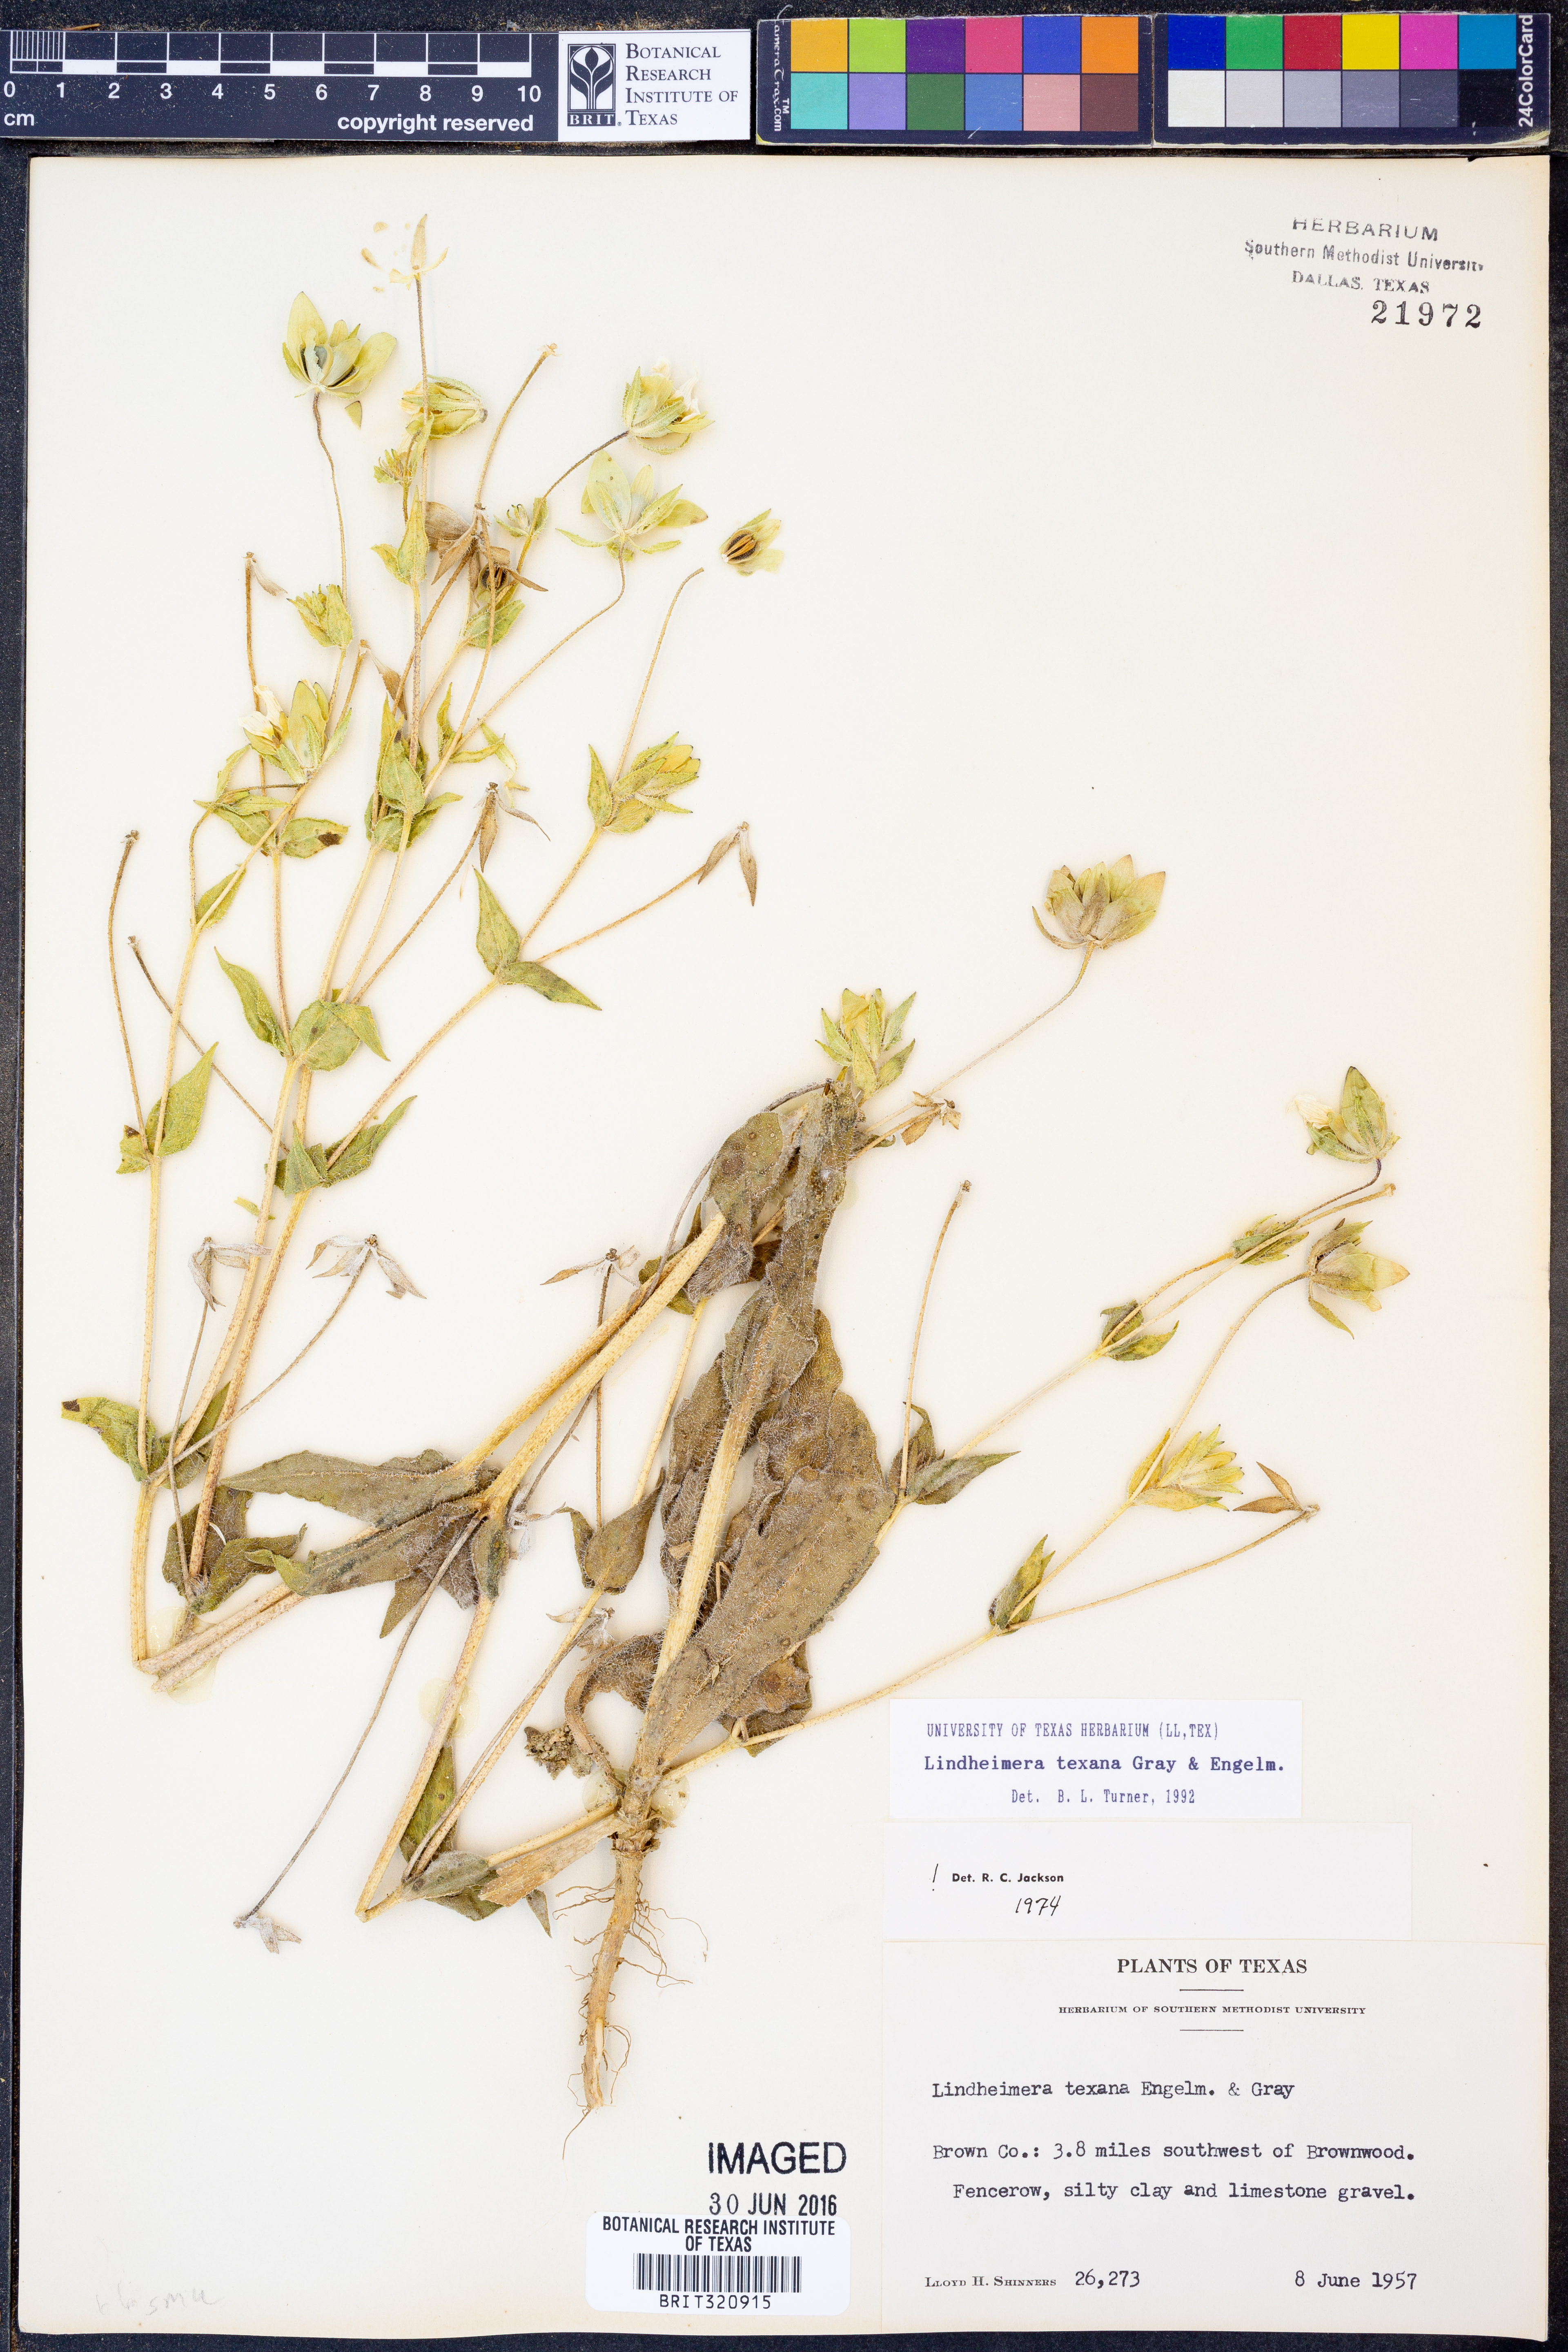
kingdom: Plantae
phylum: Tracheophyta
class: Magnoliopsida
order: Asterales
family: Asteraceae
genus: Lindheimera
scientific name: Lindheimera texana
